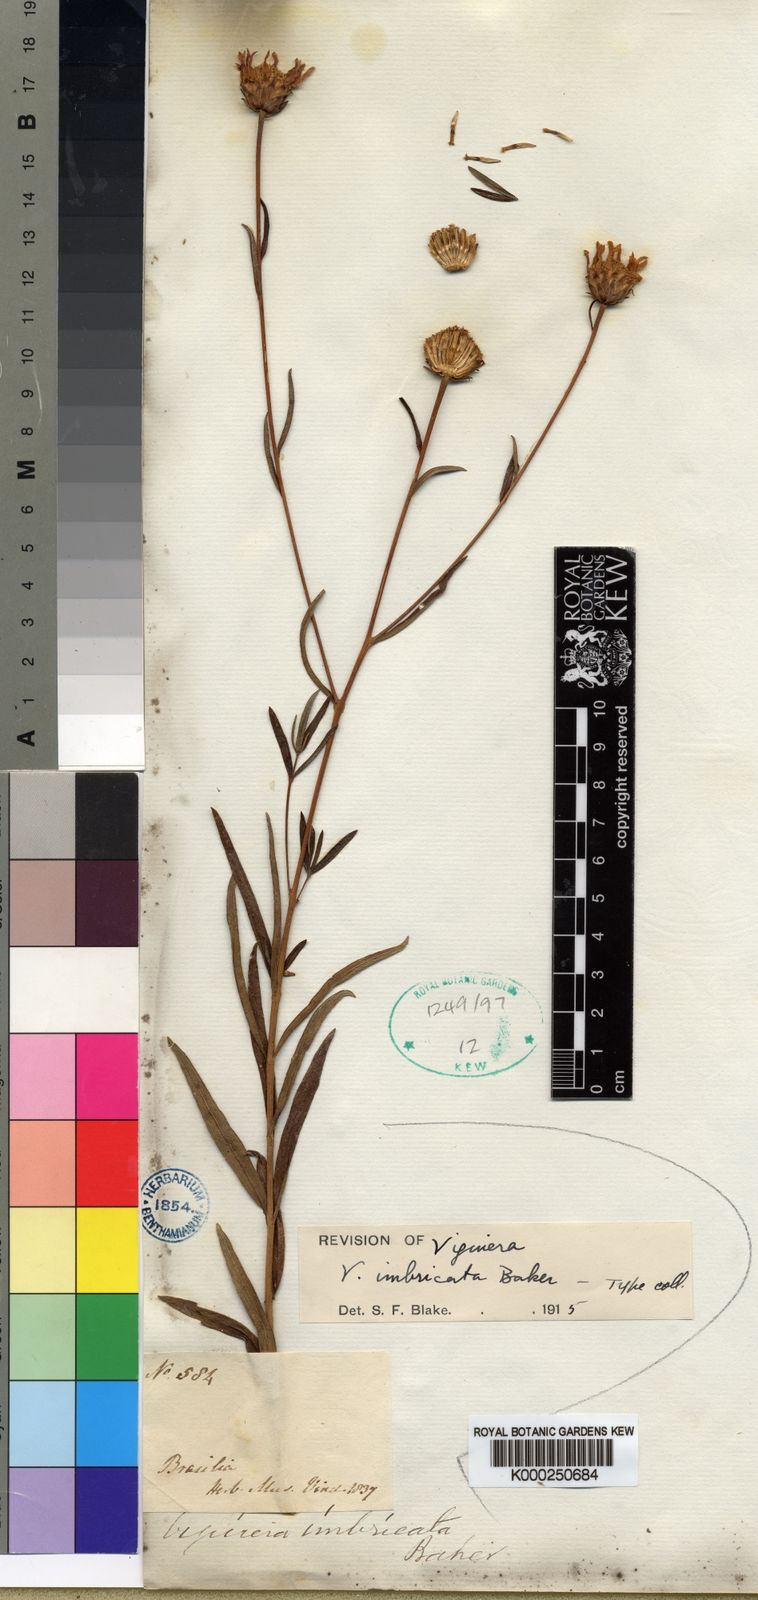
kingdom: Plantae
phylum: Tracheophyta
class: Magnoliopsida
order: Asterales
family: Asteraceae
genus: Aldama
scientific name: Aldama bracteata
